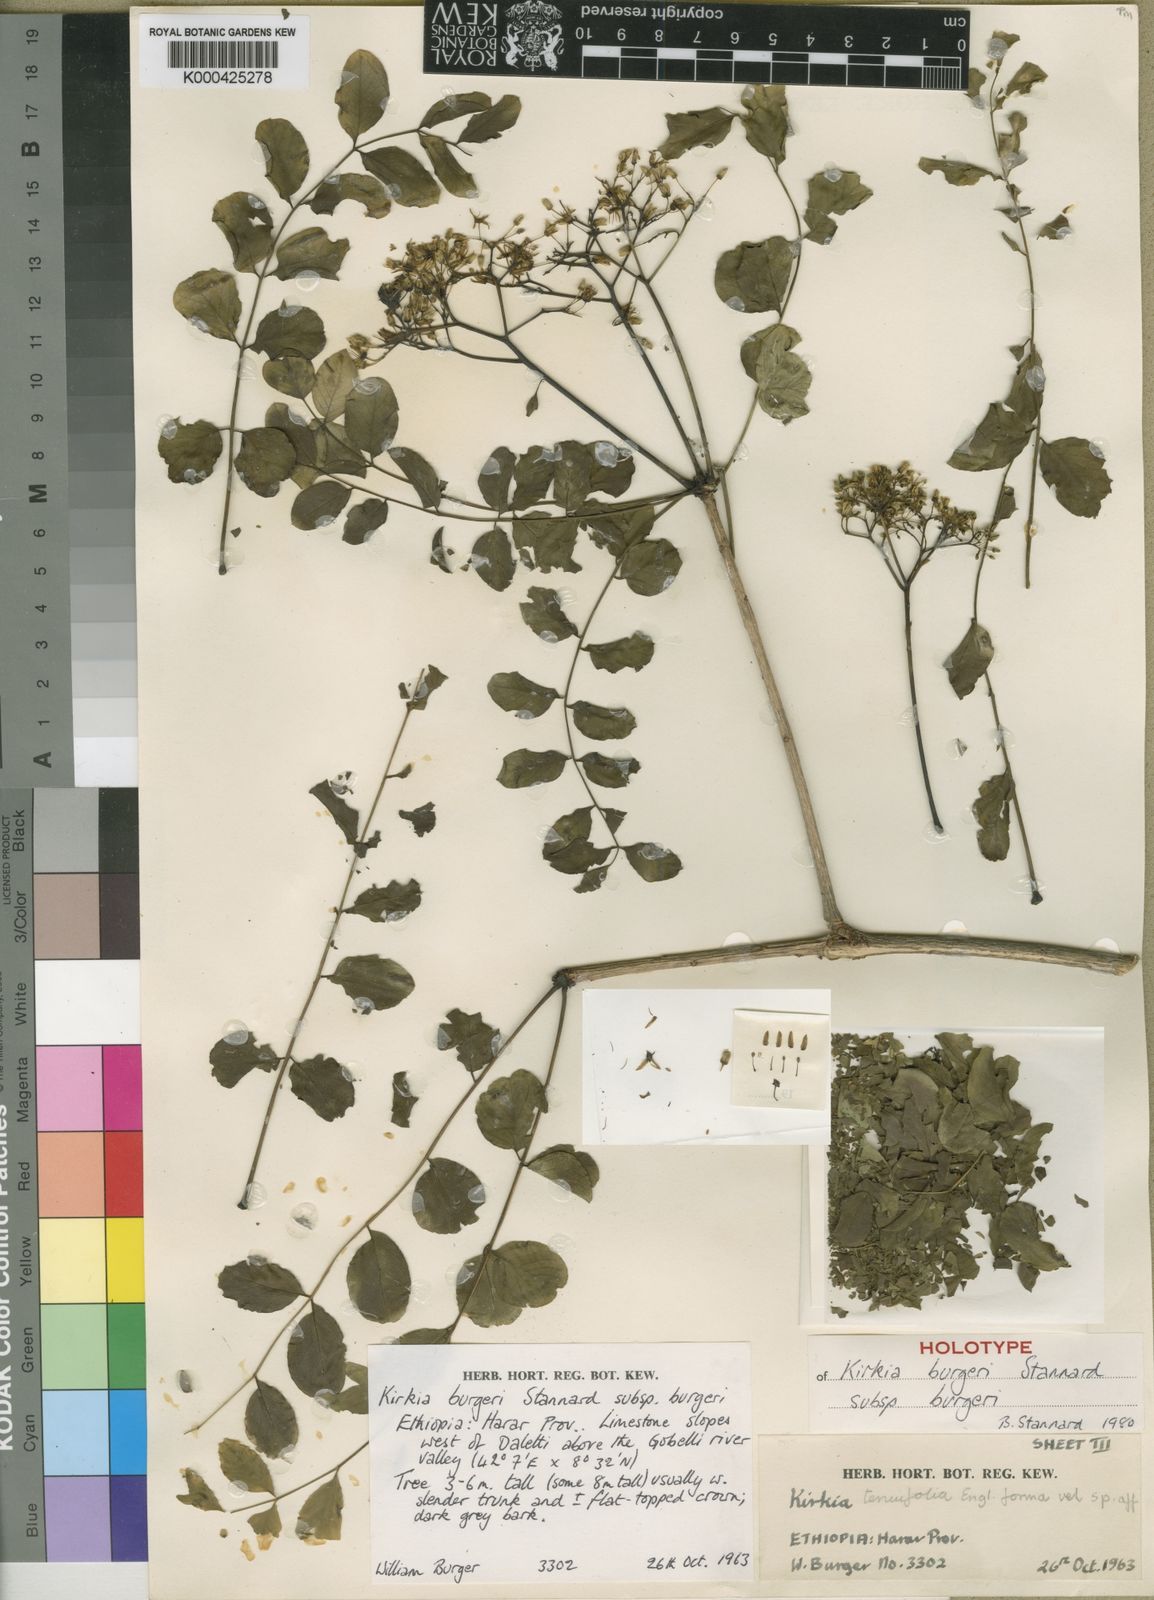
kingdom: Plantae
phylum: Tracheophyta
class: Magnoliopsida
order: Sapindales
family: Kirkiaceae
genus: Kirkia
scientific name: Kirkia burgeri
